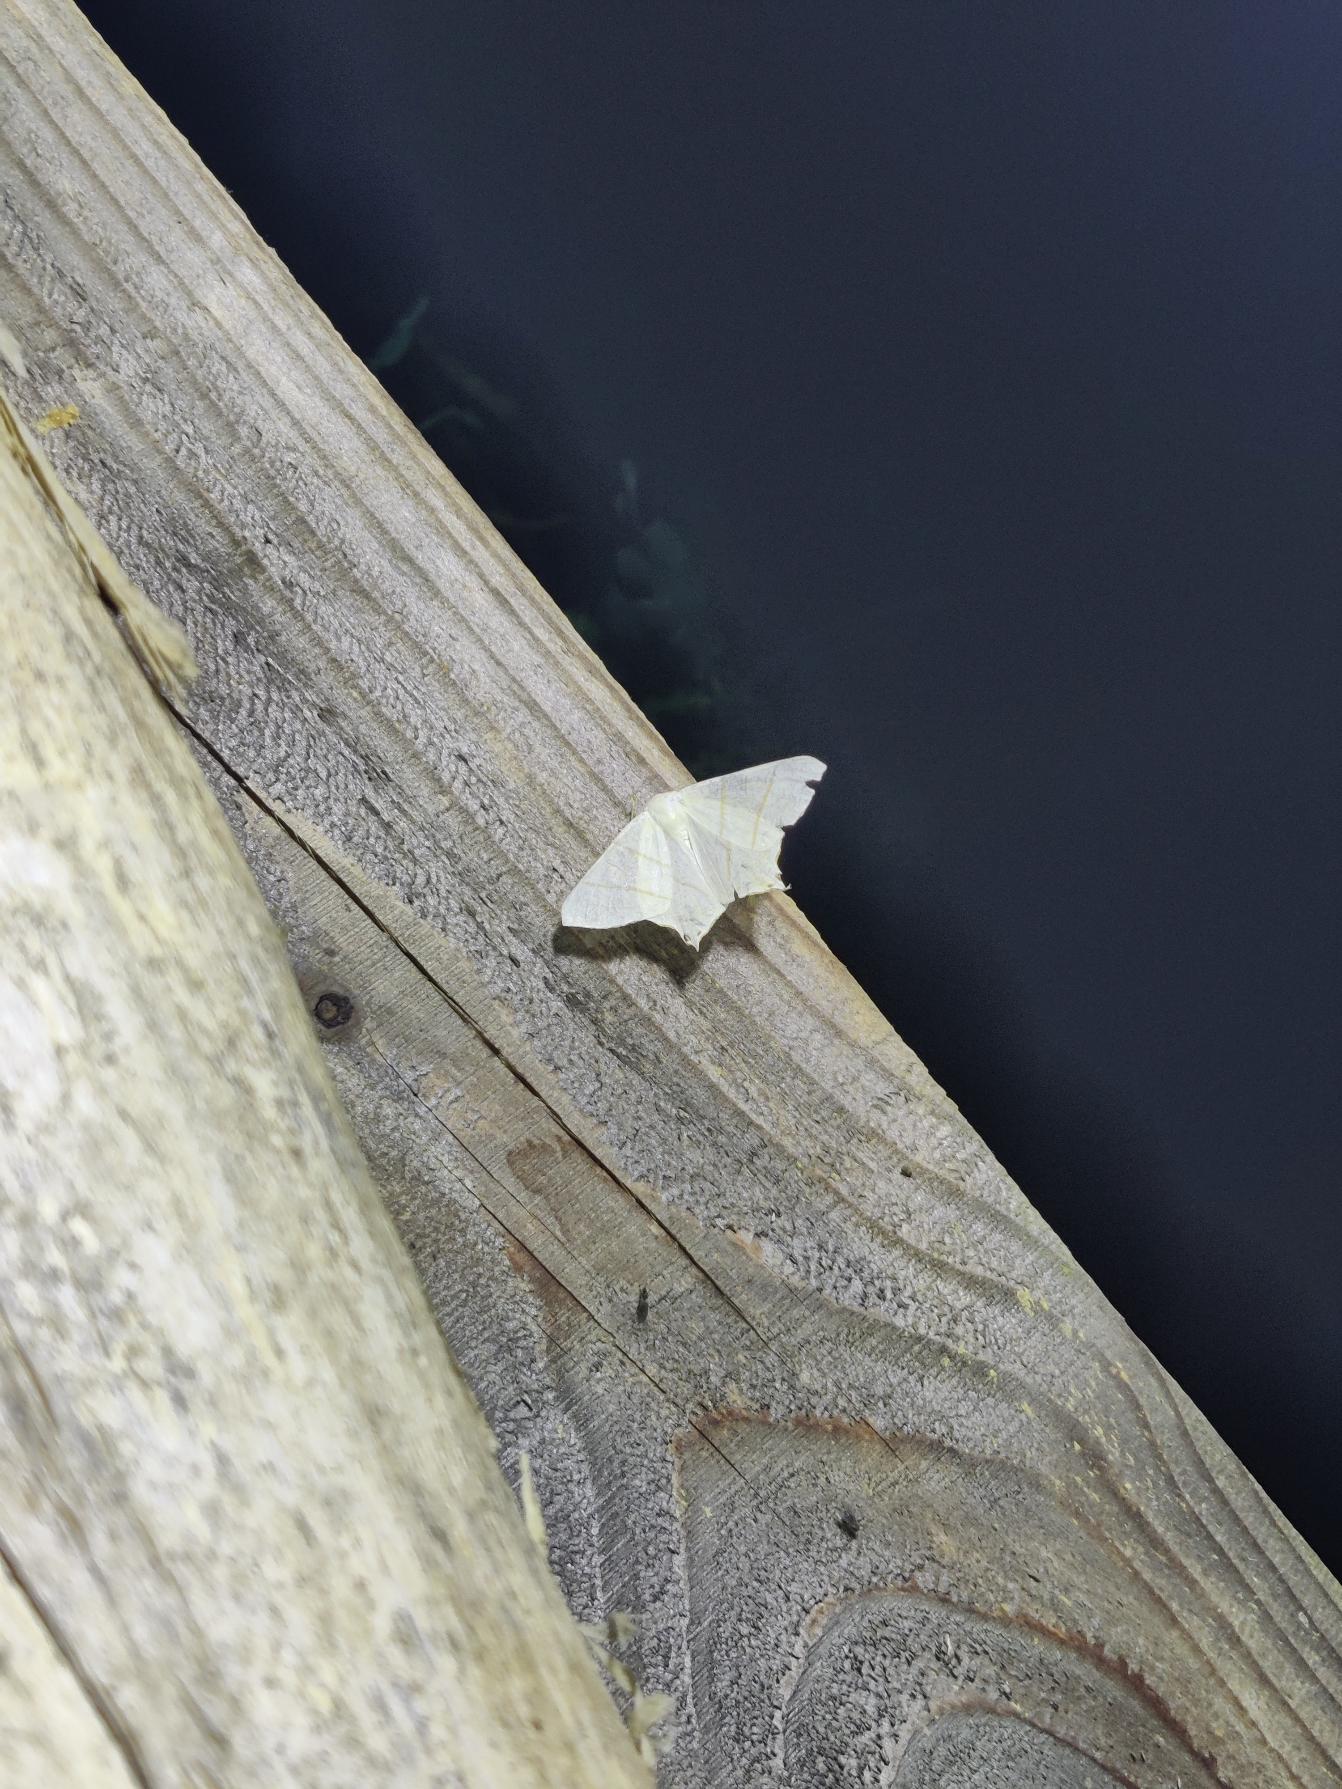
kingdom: Animalia
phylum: Arthropoda
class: Insecta
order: Lepidoptera
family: Geometridae
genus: Ourapteryx
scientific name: Ourapteryx sambucaria
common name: Natsvalehale
